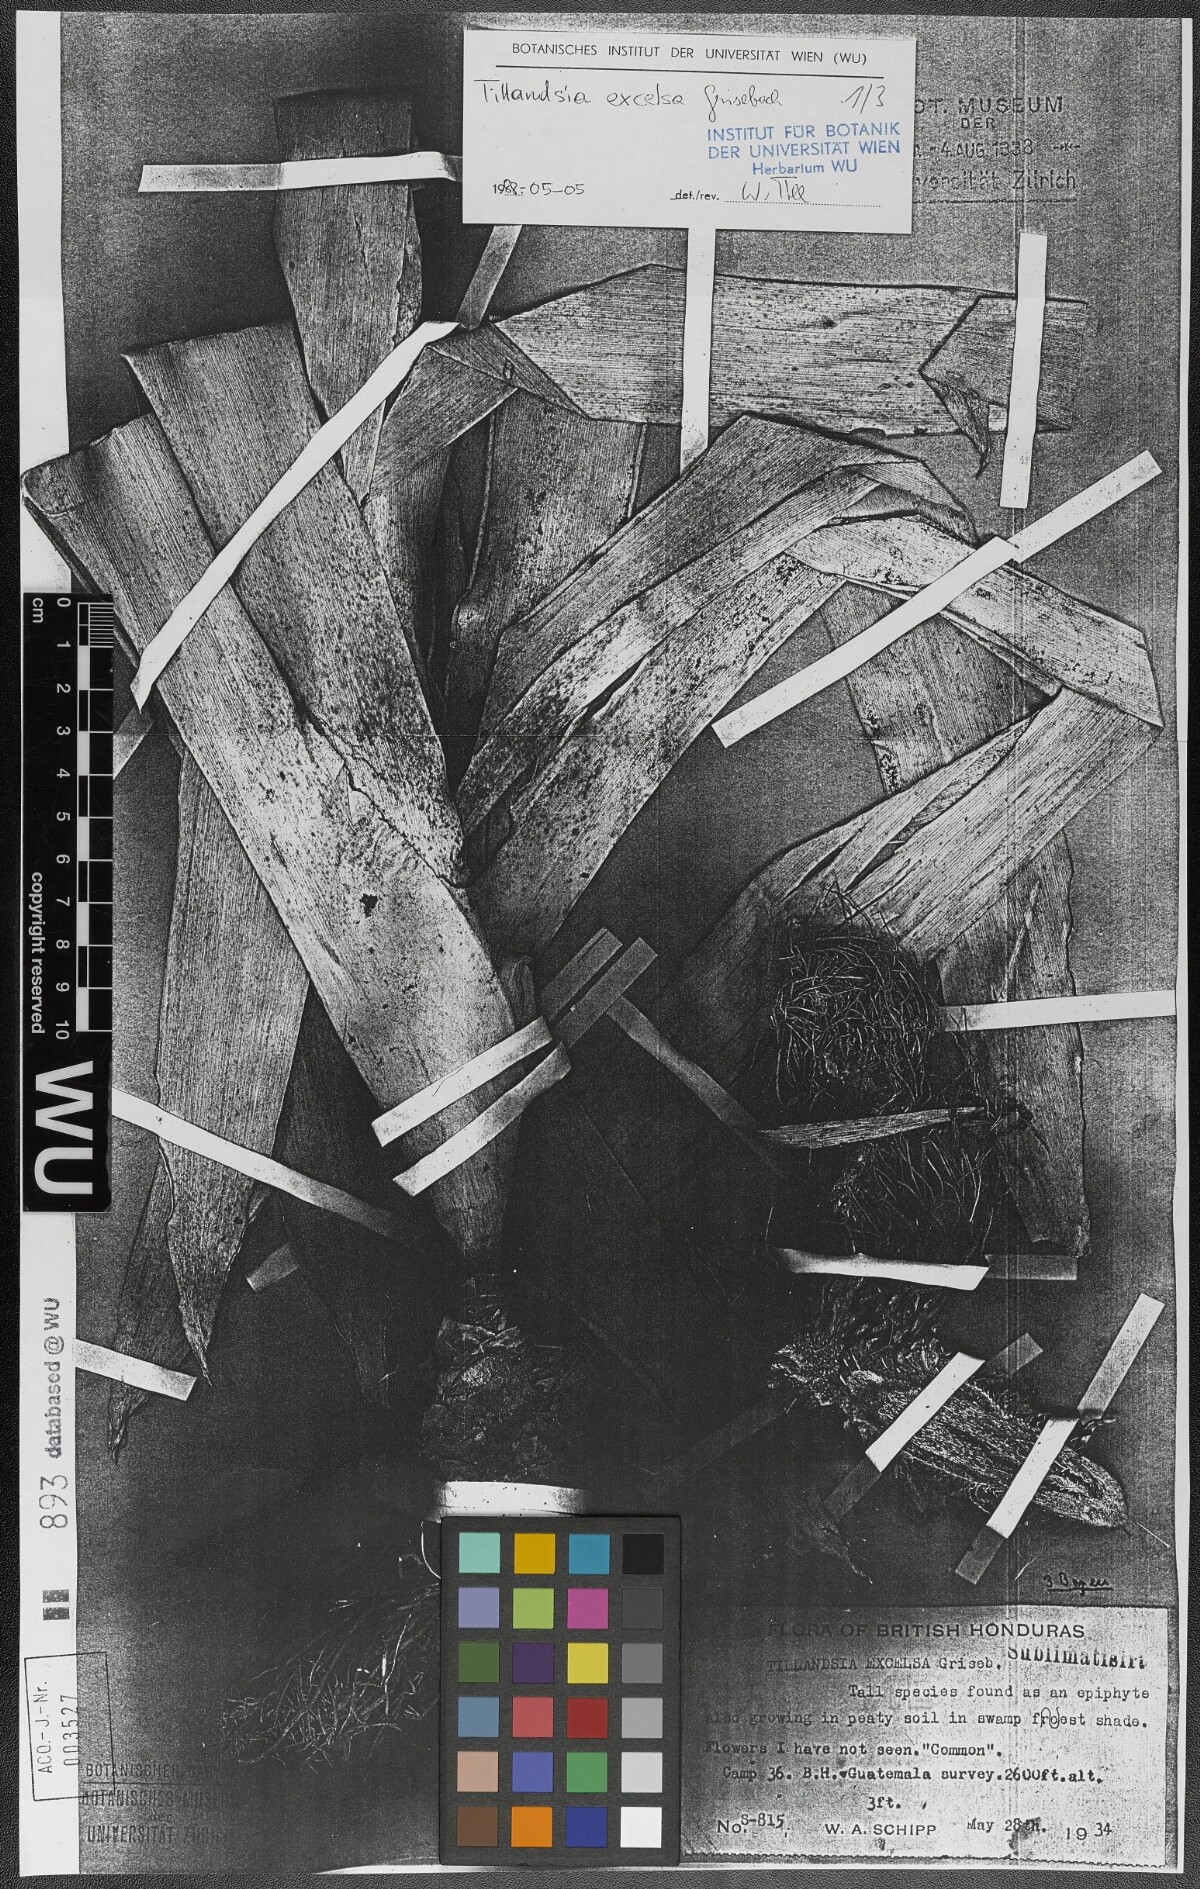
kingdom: Plantae
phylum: Tracheophyta
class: Liliopsida
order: Poales
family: Bromeliaceae
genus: Tillandsia
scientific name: Tillandsia excelsa
